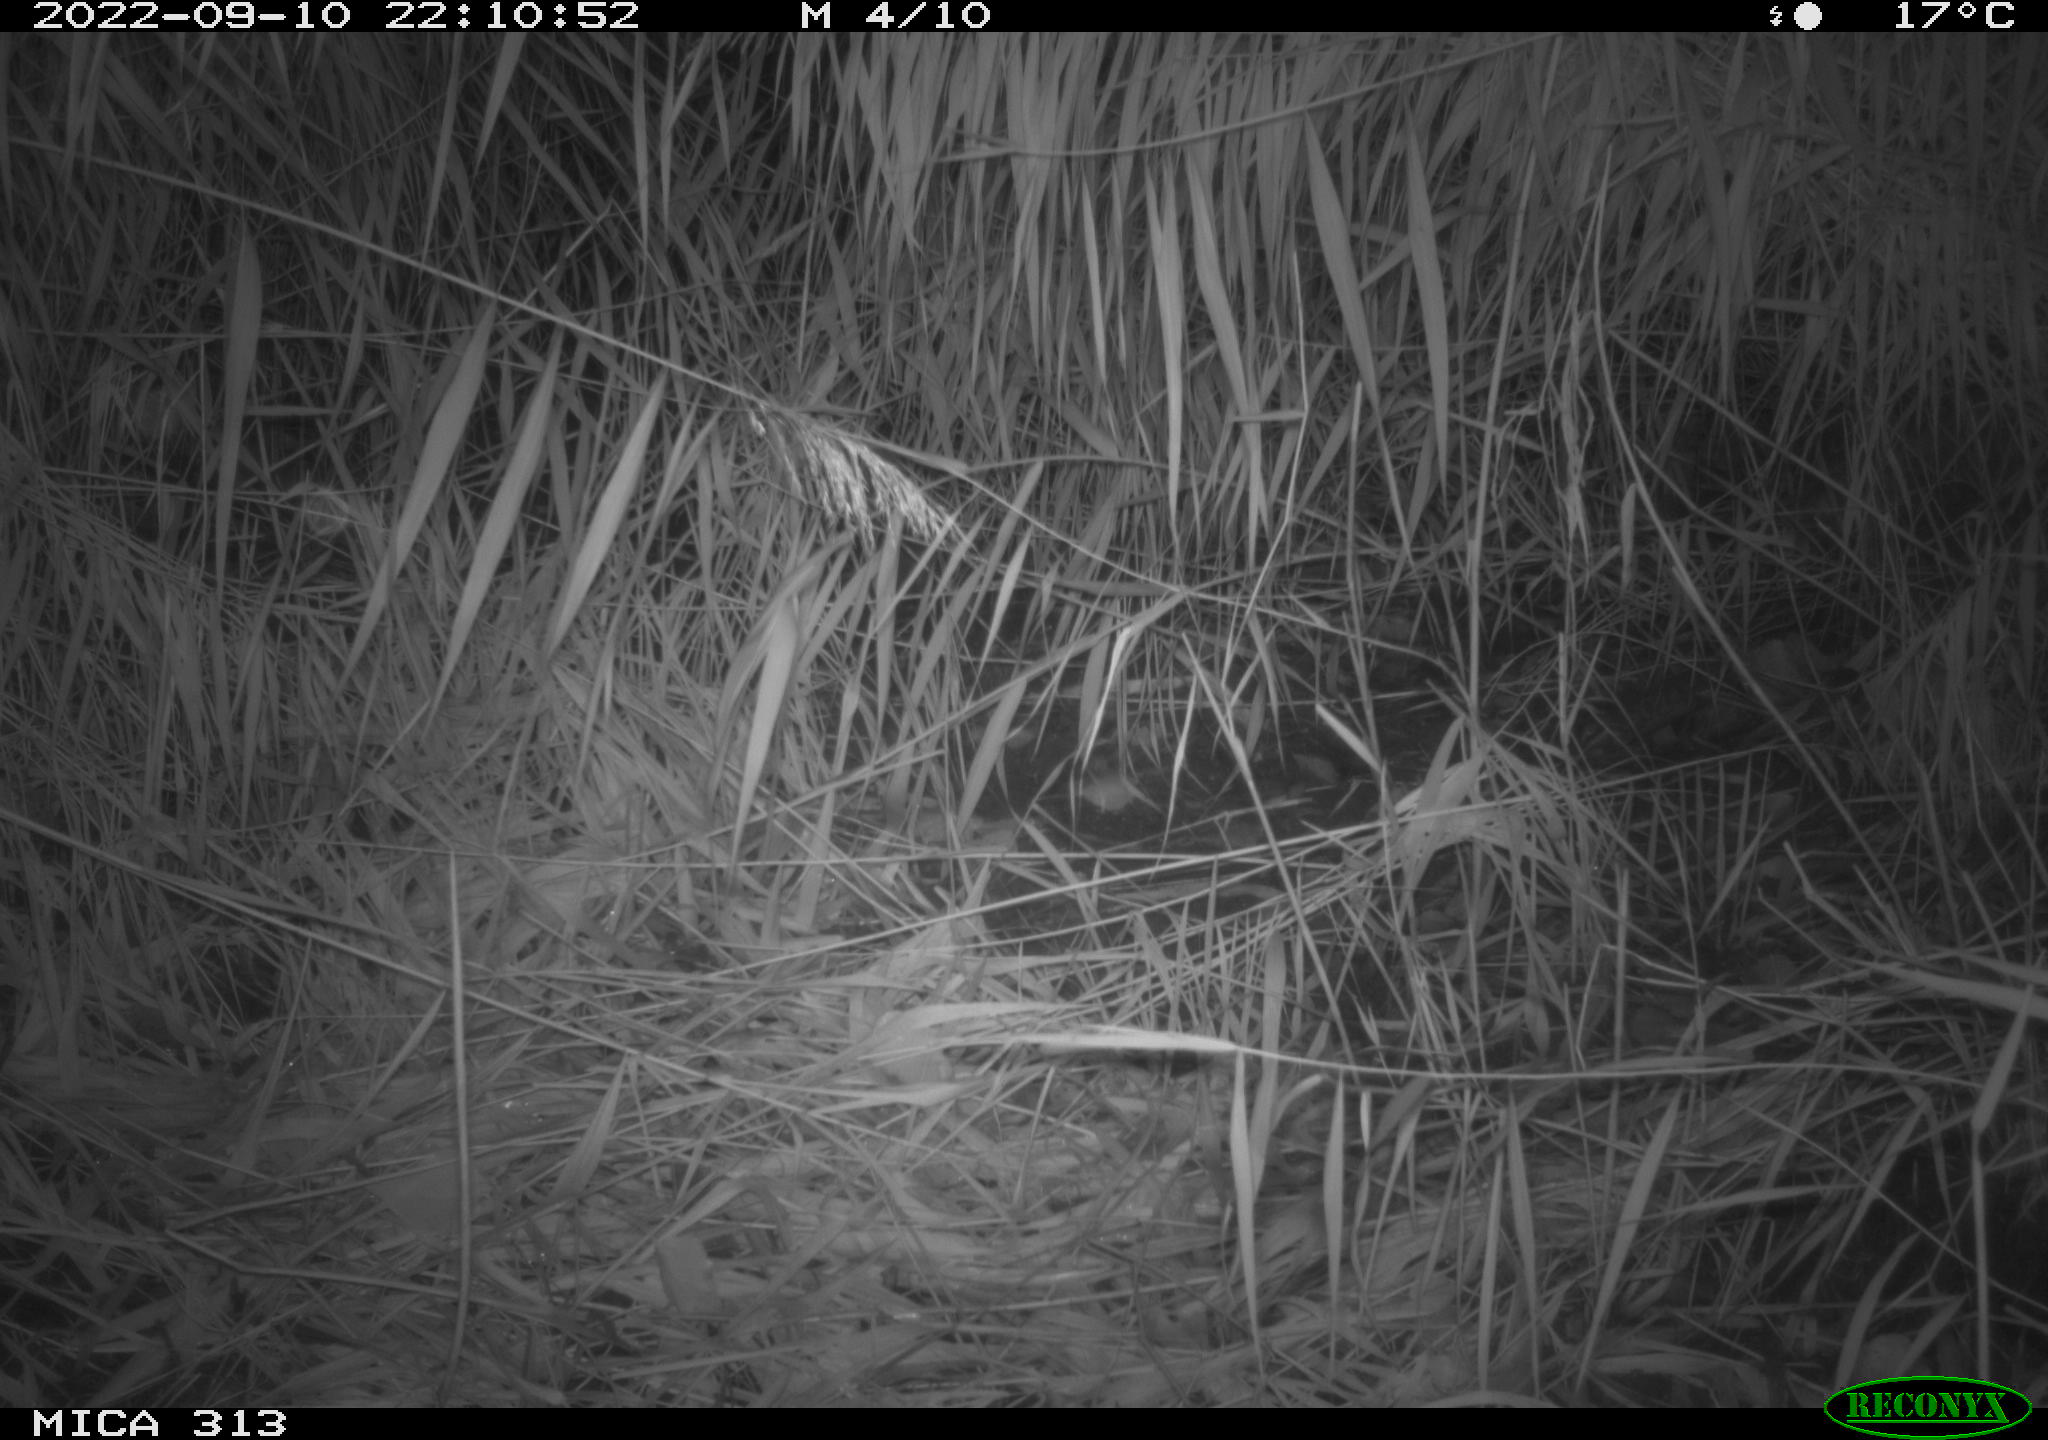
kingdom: Animalia
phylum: Chordata
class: Mammalia
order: Rodentia
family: Muridae
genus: Rattus
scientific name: Rattus norvegicus
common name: Brown rat
